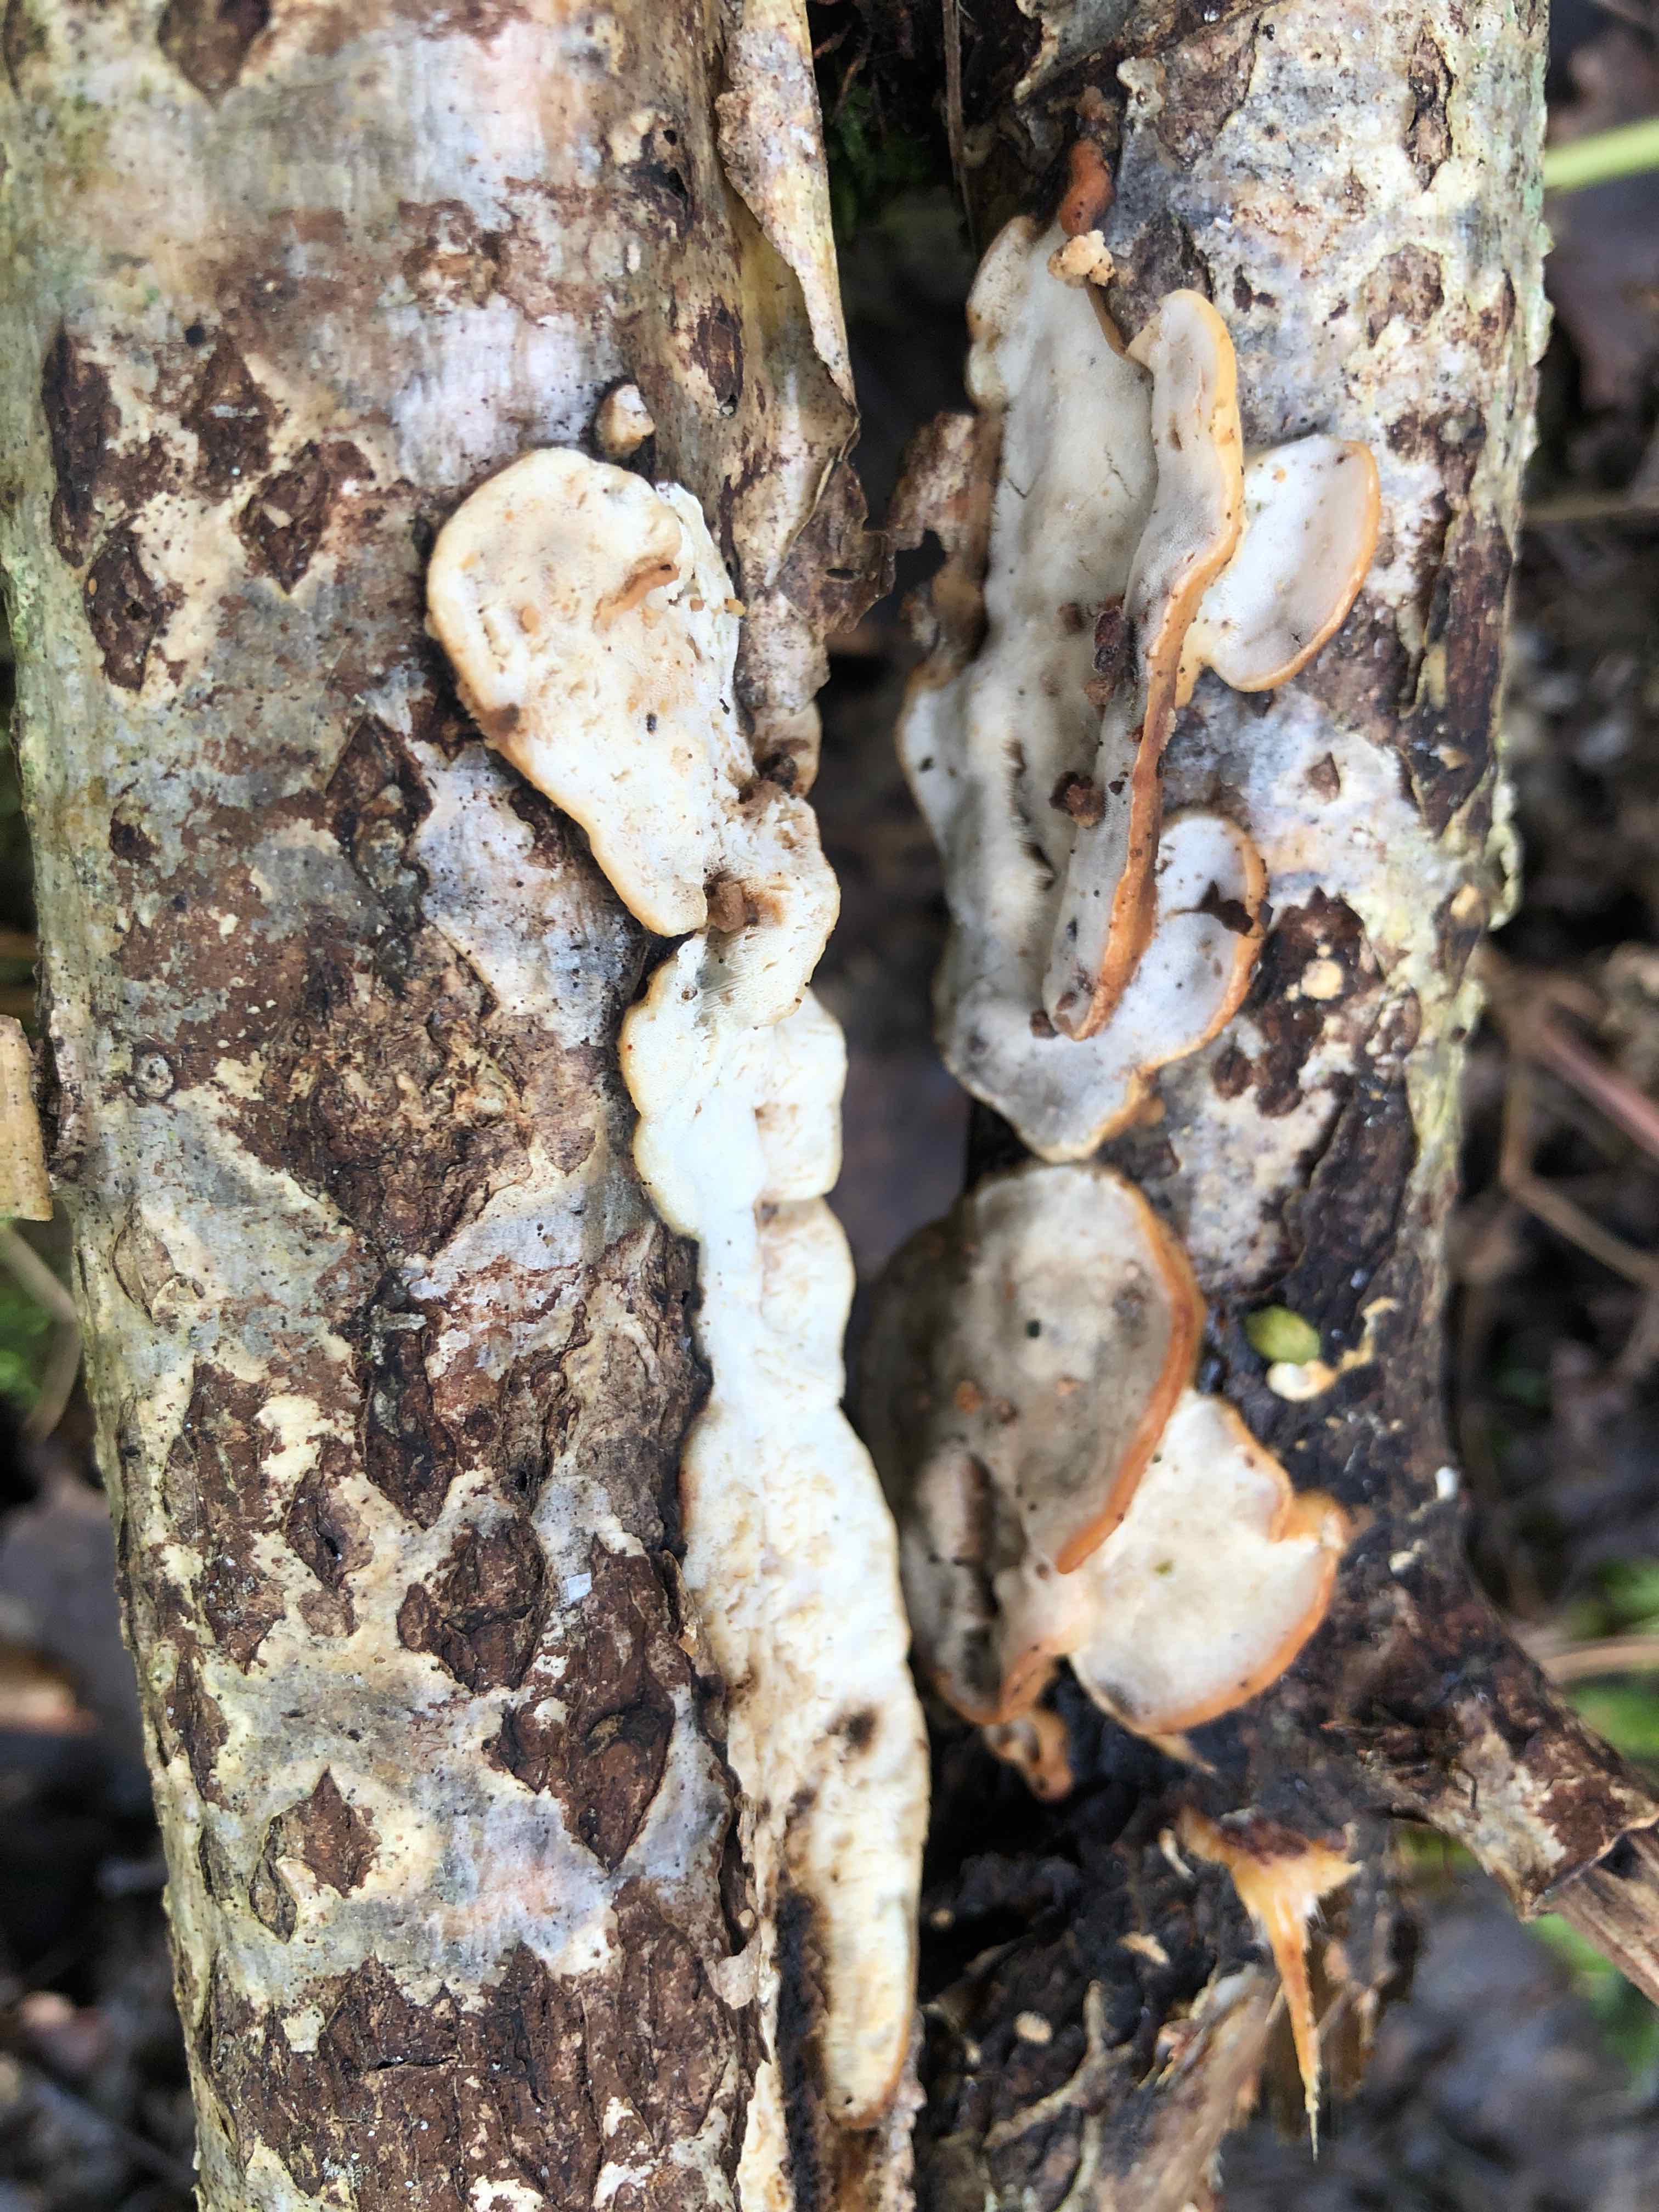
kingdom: Fungi
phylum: Basidiomycota
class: Agaricomycetes
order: Polyporales
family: Incrustoporiaceae
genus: Skeletocutis
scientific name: Skeletocutis nemoralis
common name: stor krystalporesvamp
